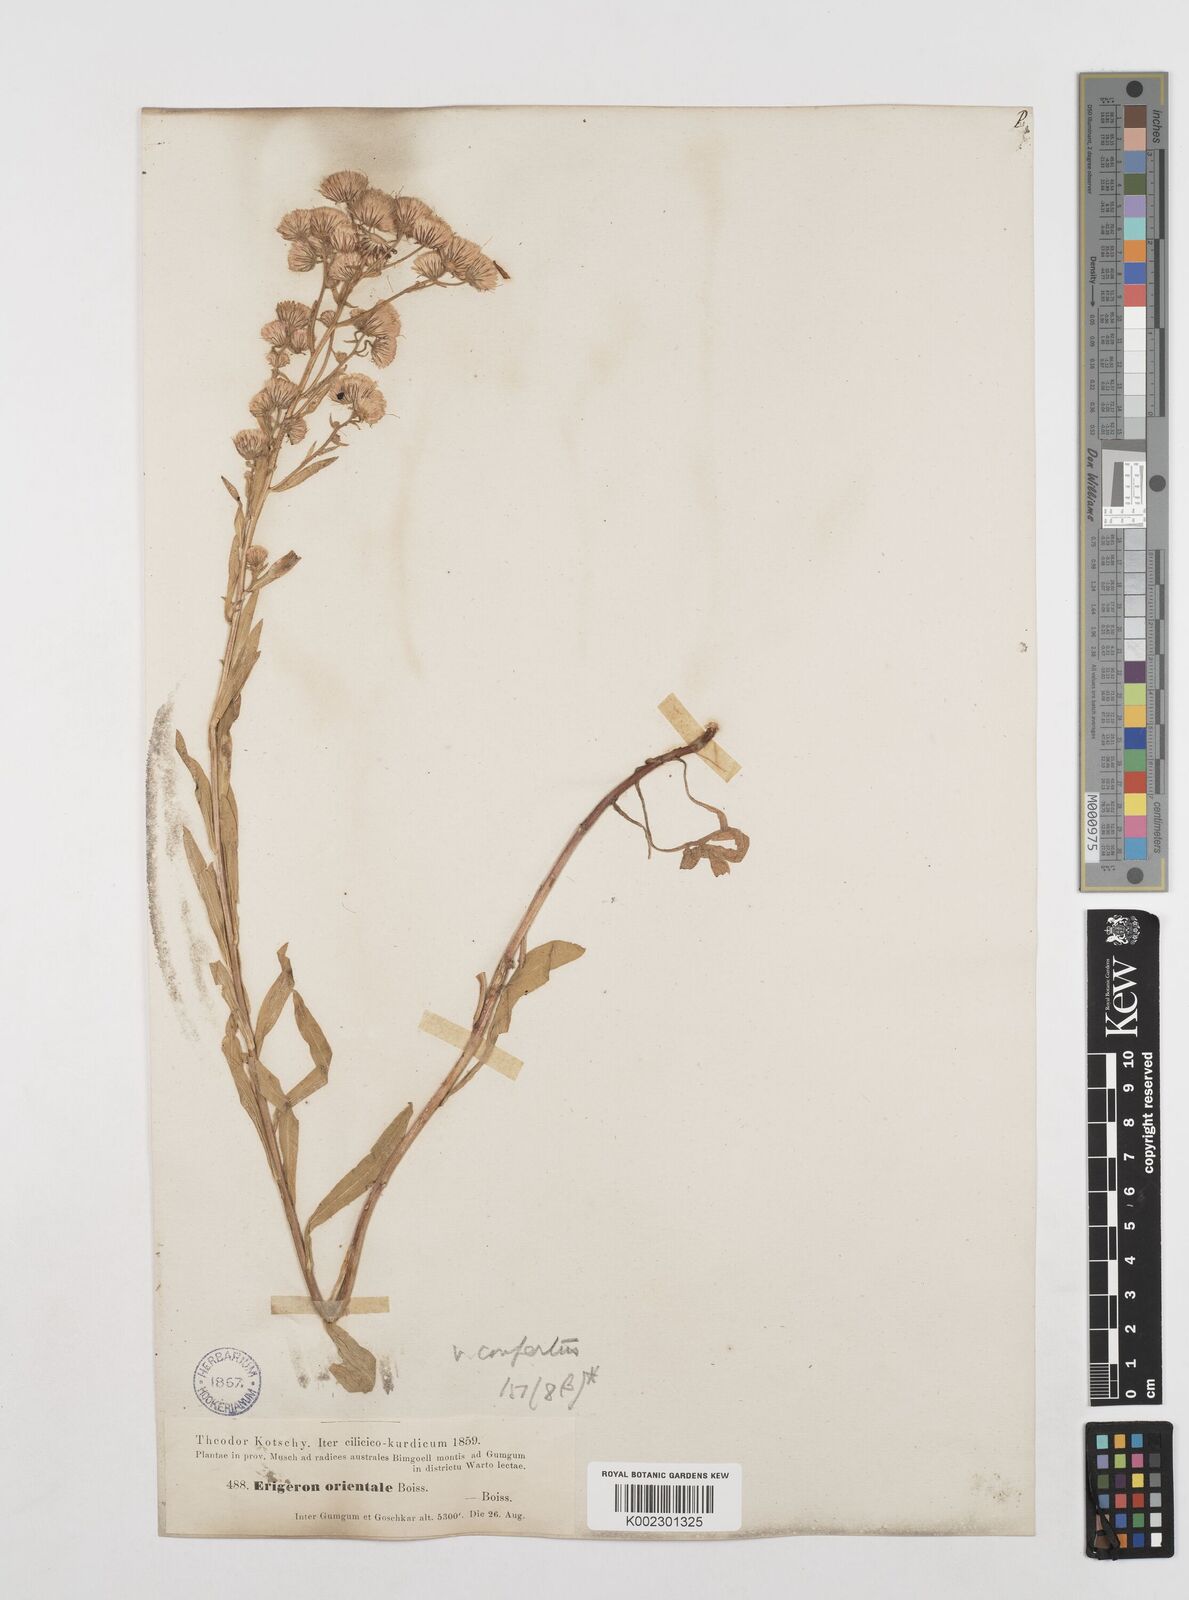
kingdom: Plantae
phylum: Tracheophyta
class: Magnoliopsida
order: Asterales
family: Asteraceae
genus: Erigeron
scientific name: Erigeron acris
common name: Blue fleabane
